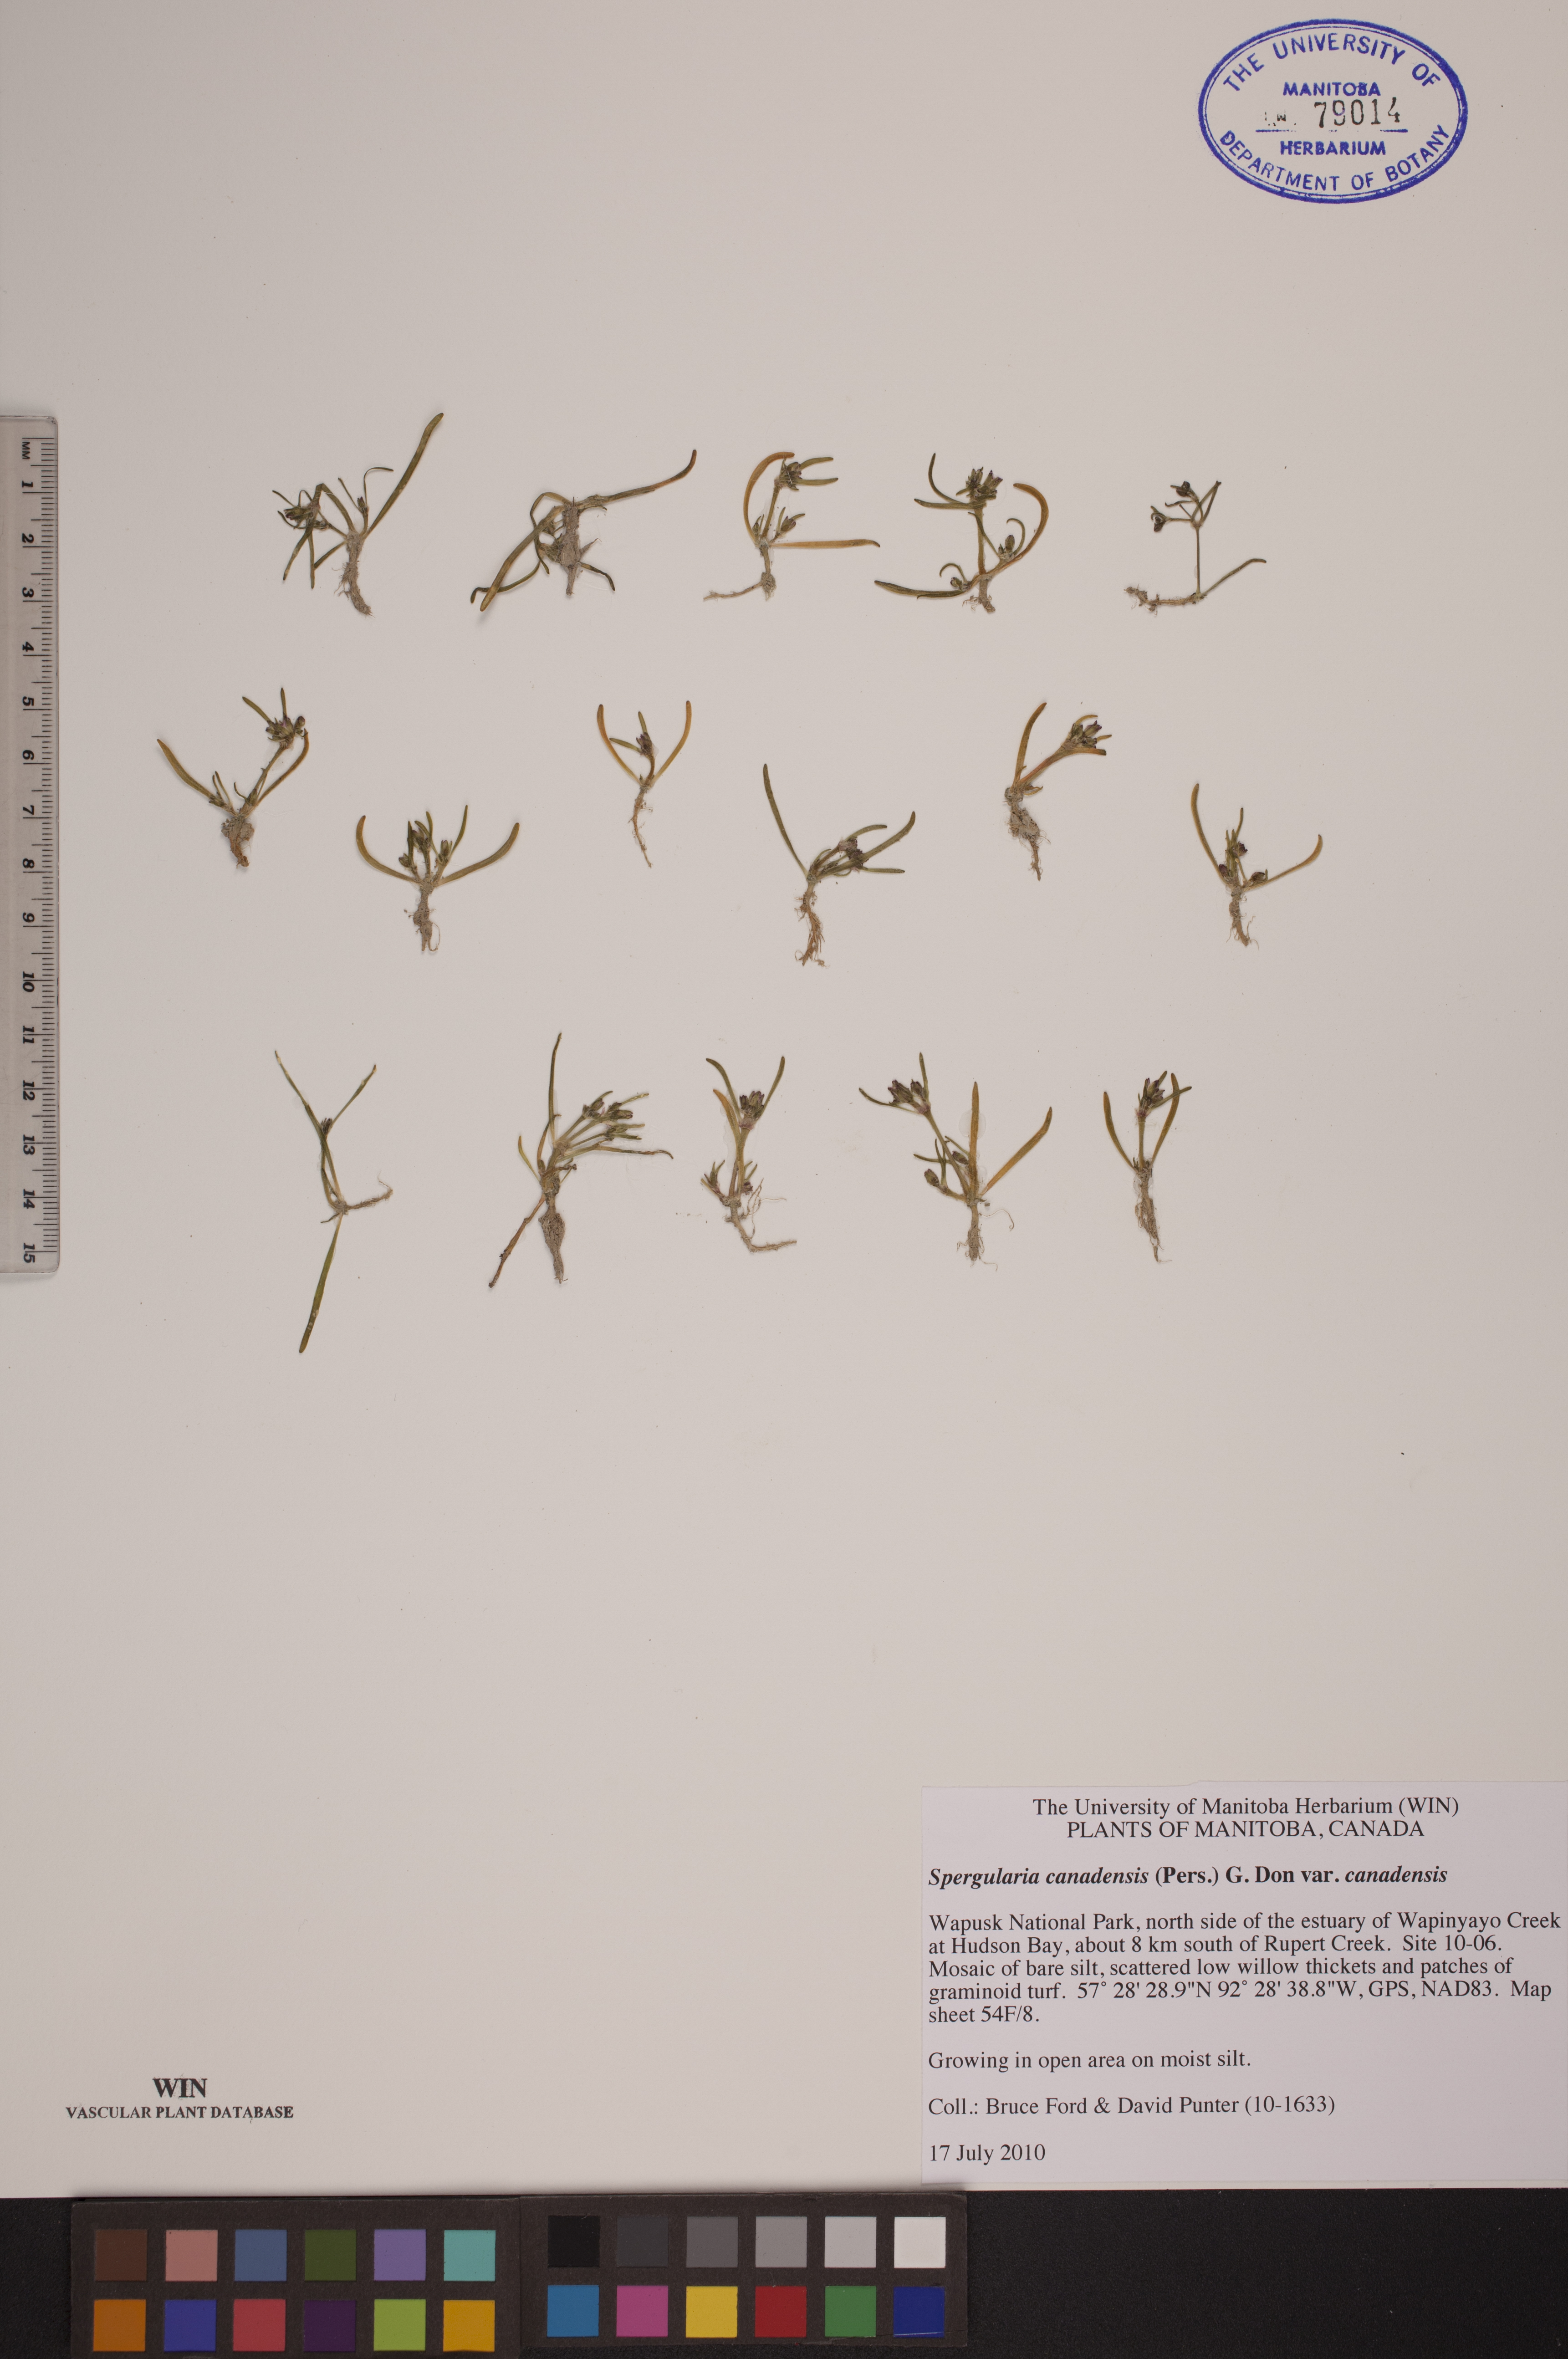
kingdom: Plantae
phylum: Tracheophyta
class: Magnoliopsida
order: Caryophyllales
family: Caryophyllaceae
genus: Spergularia
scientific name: Spergularia canadensis
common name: Canada sand-spurrey
